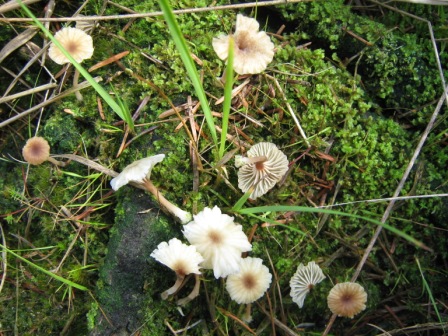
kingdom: Fungi
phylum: Basidiomycota
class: Agaricomycetes
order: Agaricales
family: Hygrophoraceae
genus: Lichenomphalia
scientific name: Lichenomphalia umbellifera
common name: tørve-lavhat
